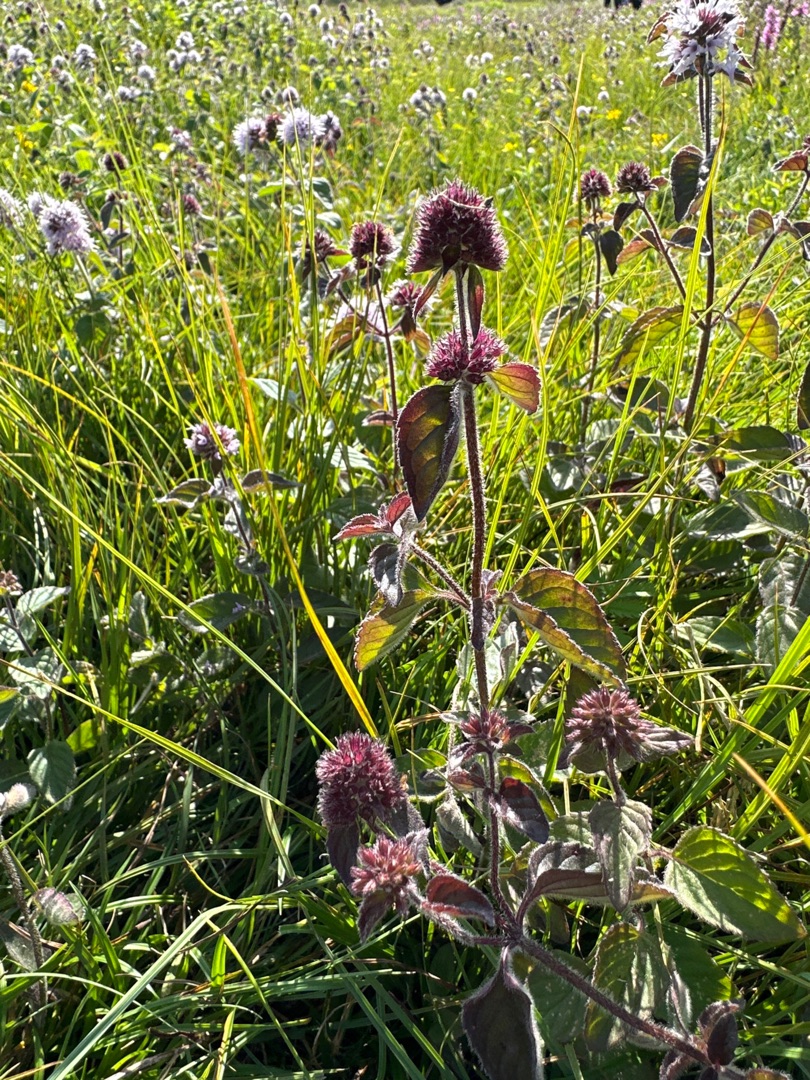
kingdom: Plantae
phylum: Tracheophyta
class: Magnoliopsida
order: Lamiales
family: Lamiaceae
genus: Mentha
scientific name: Mentha aquatica
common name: Vand-mynte
